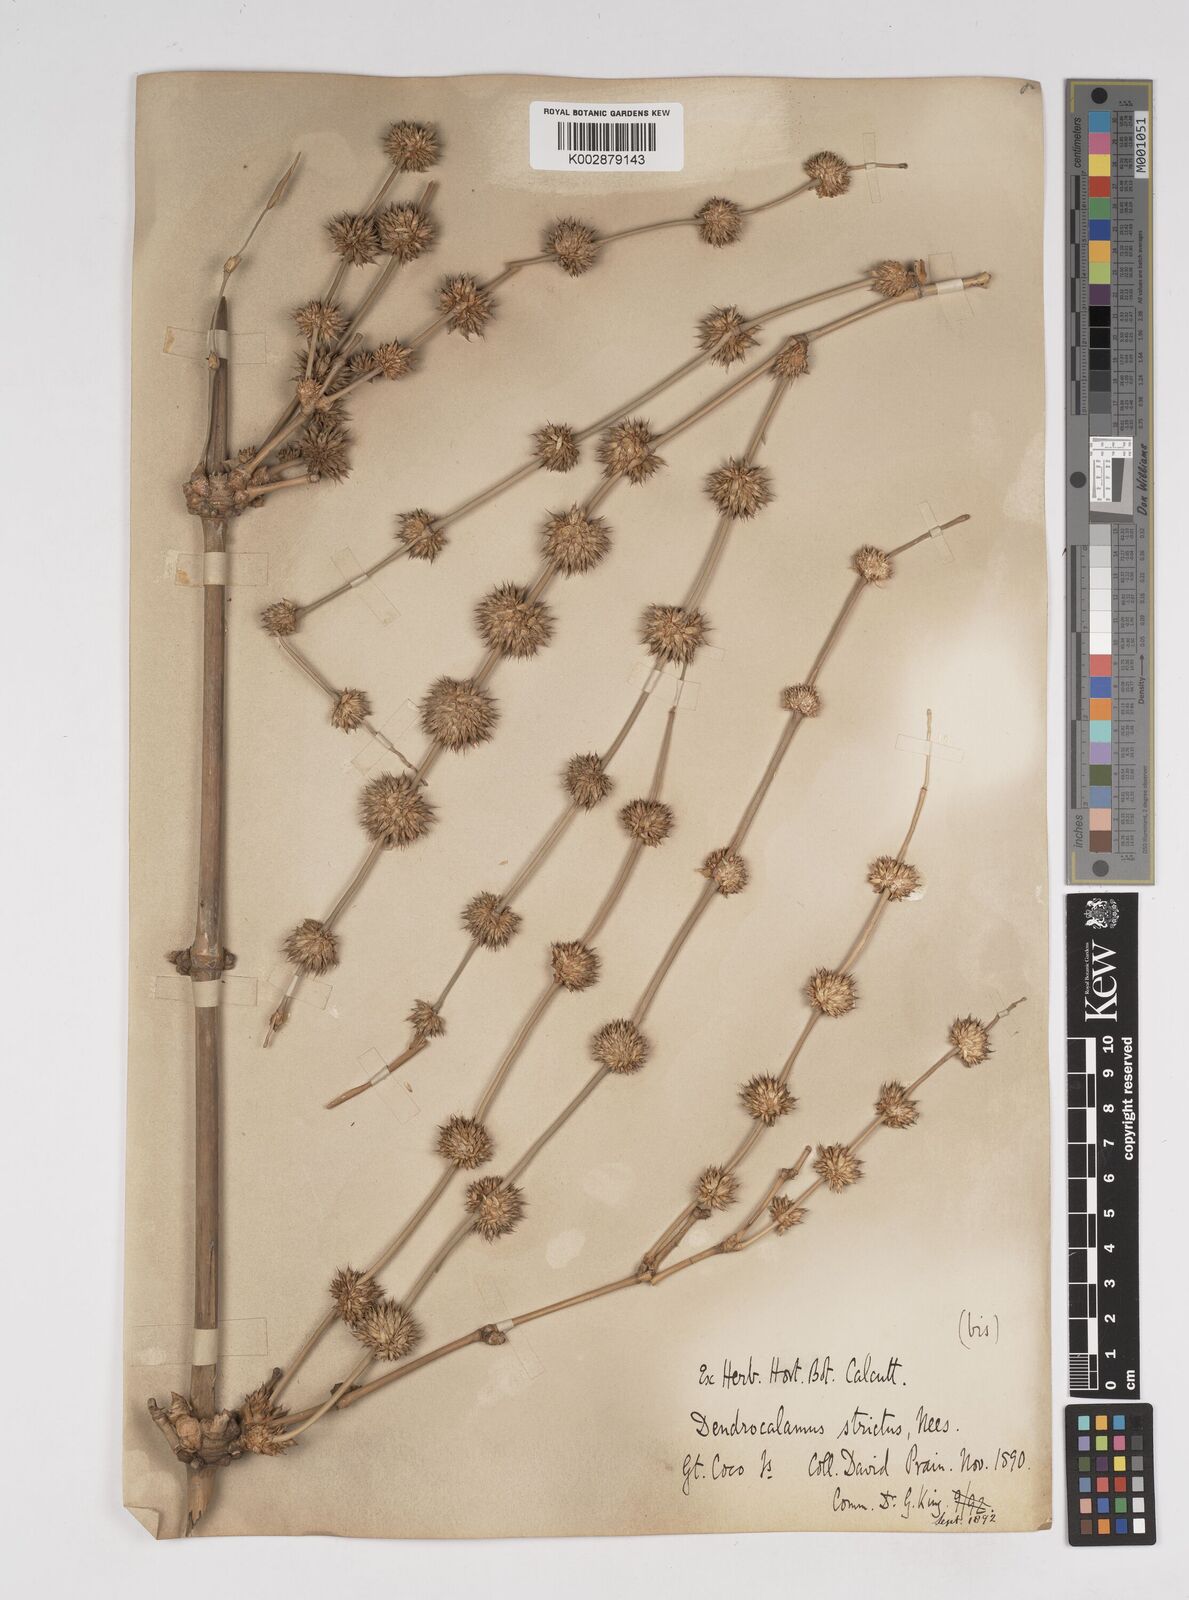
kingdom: Plantae
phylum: Tracheophyta
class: Liliopsida
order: Poales
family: Poaceae
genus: Dendrocalamus
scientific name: Dendrocalamus strictus
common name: Male bamboo
